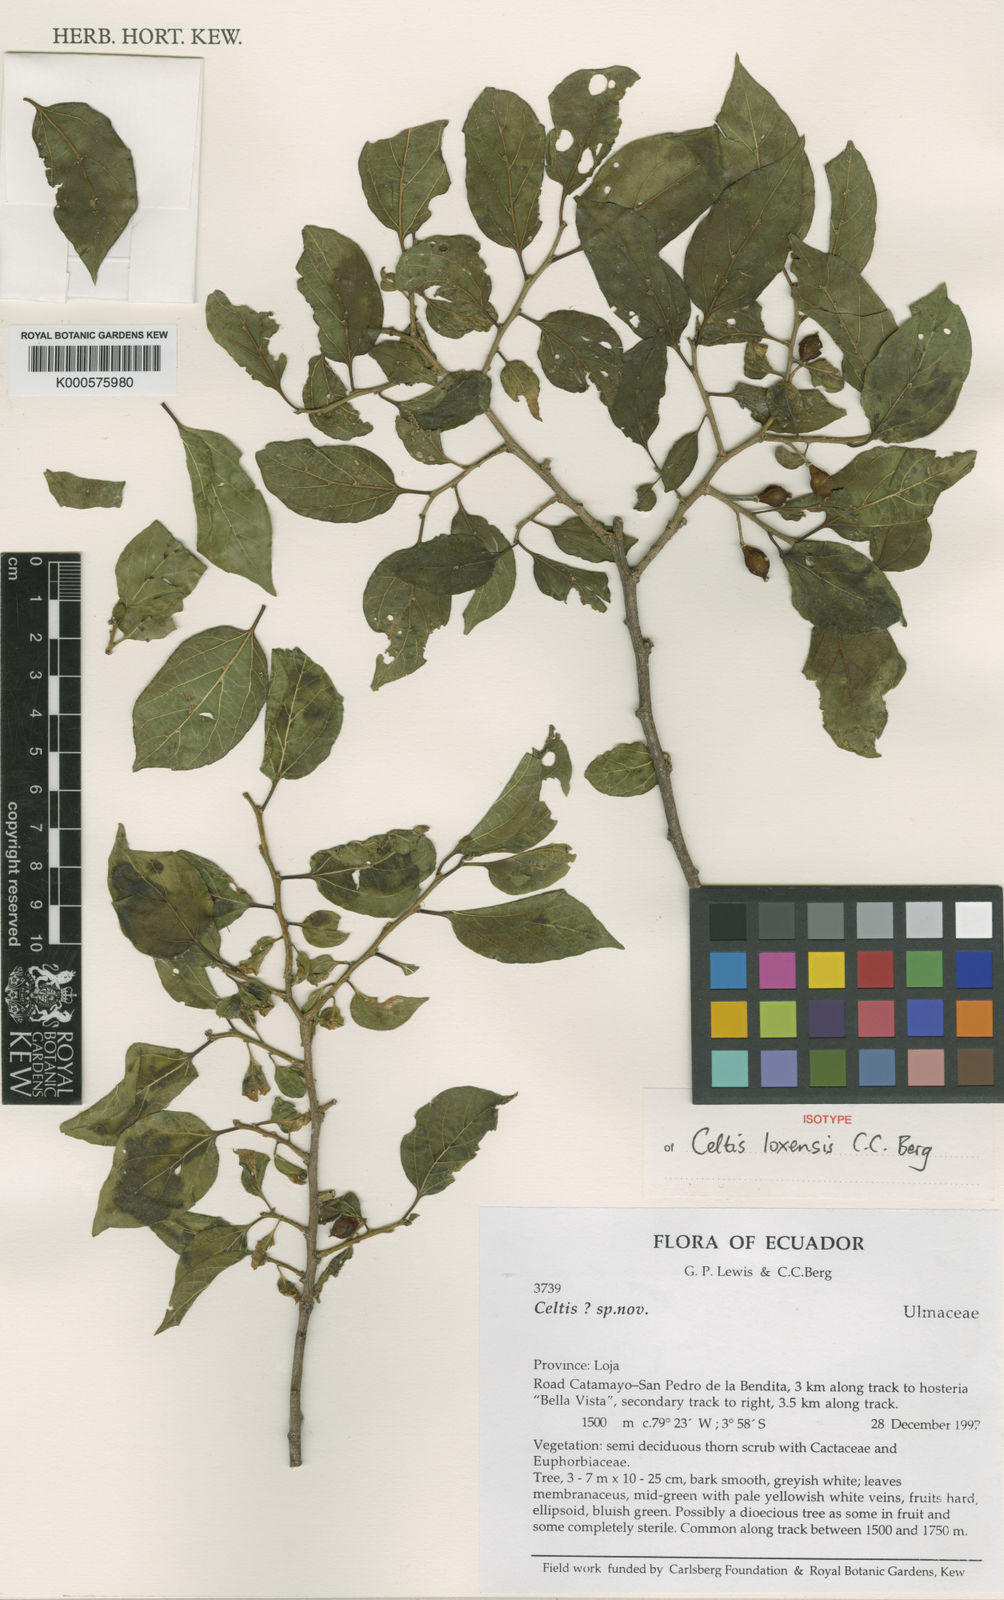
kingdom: Plantae
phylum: Tracheophyta
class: Magnoliopsida
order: Rosales
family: Cannabaceae
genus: Celtis
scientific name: Celtis loxensis
